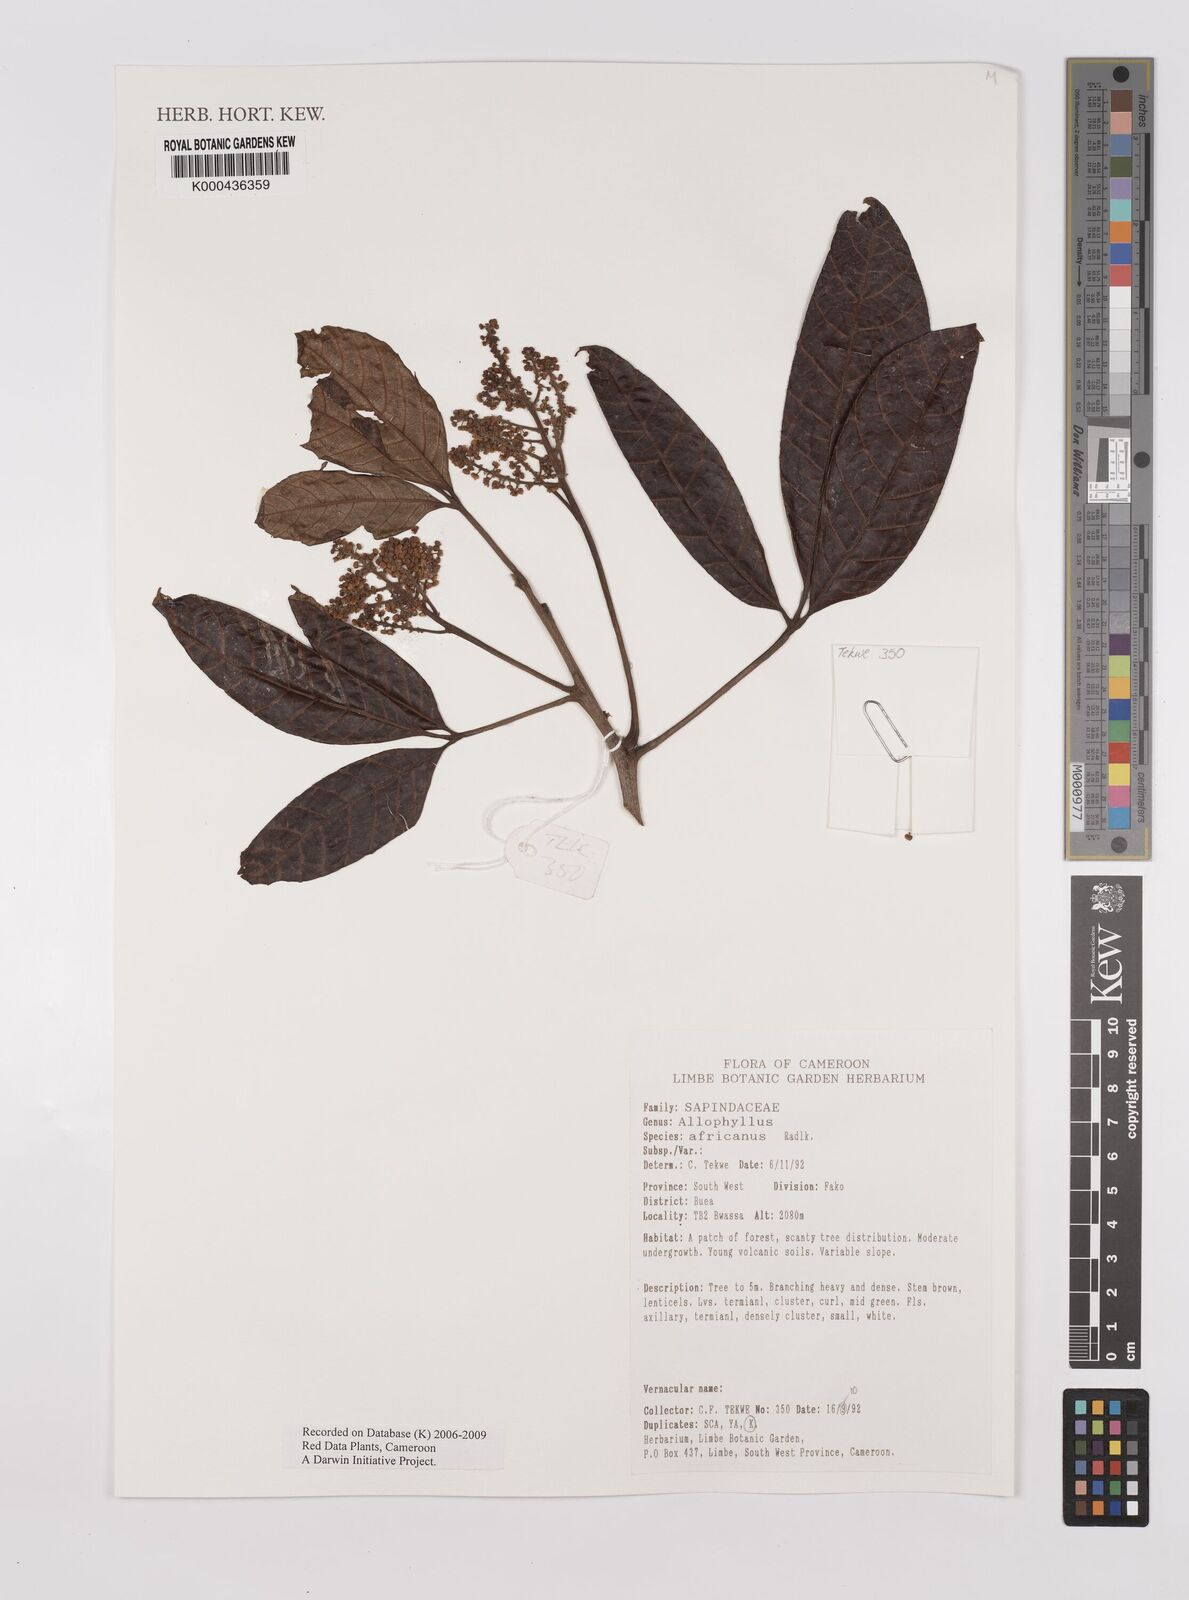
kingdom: Plantae
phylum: Tracheophyta
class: Magnoliopsida
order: Sapindales
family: Sapindaceae
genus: Allophylus
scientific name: Allophylus africanus
